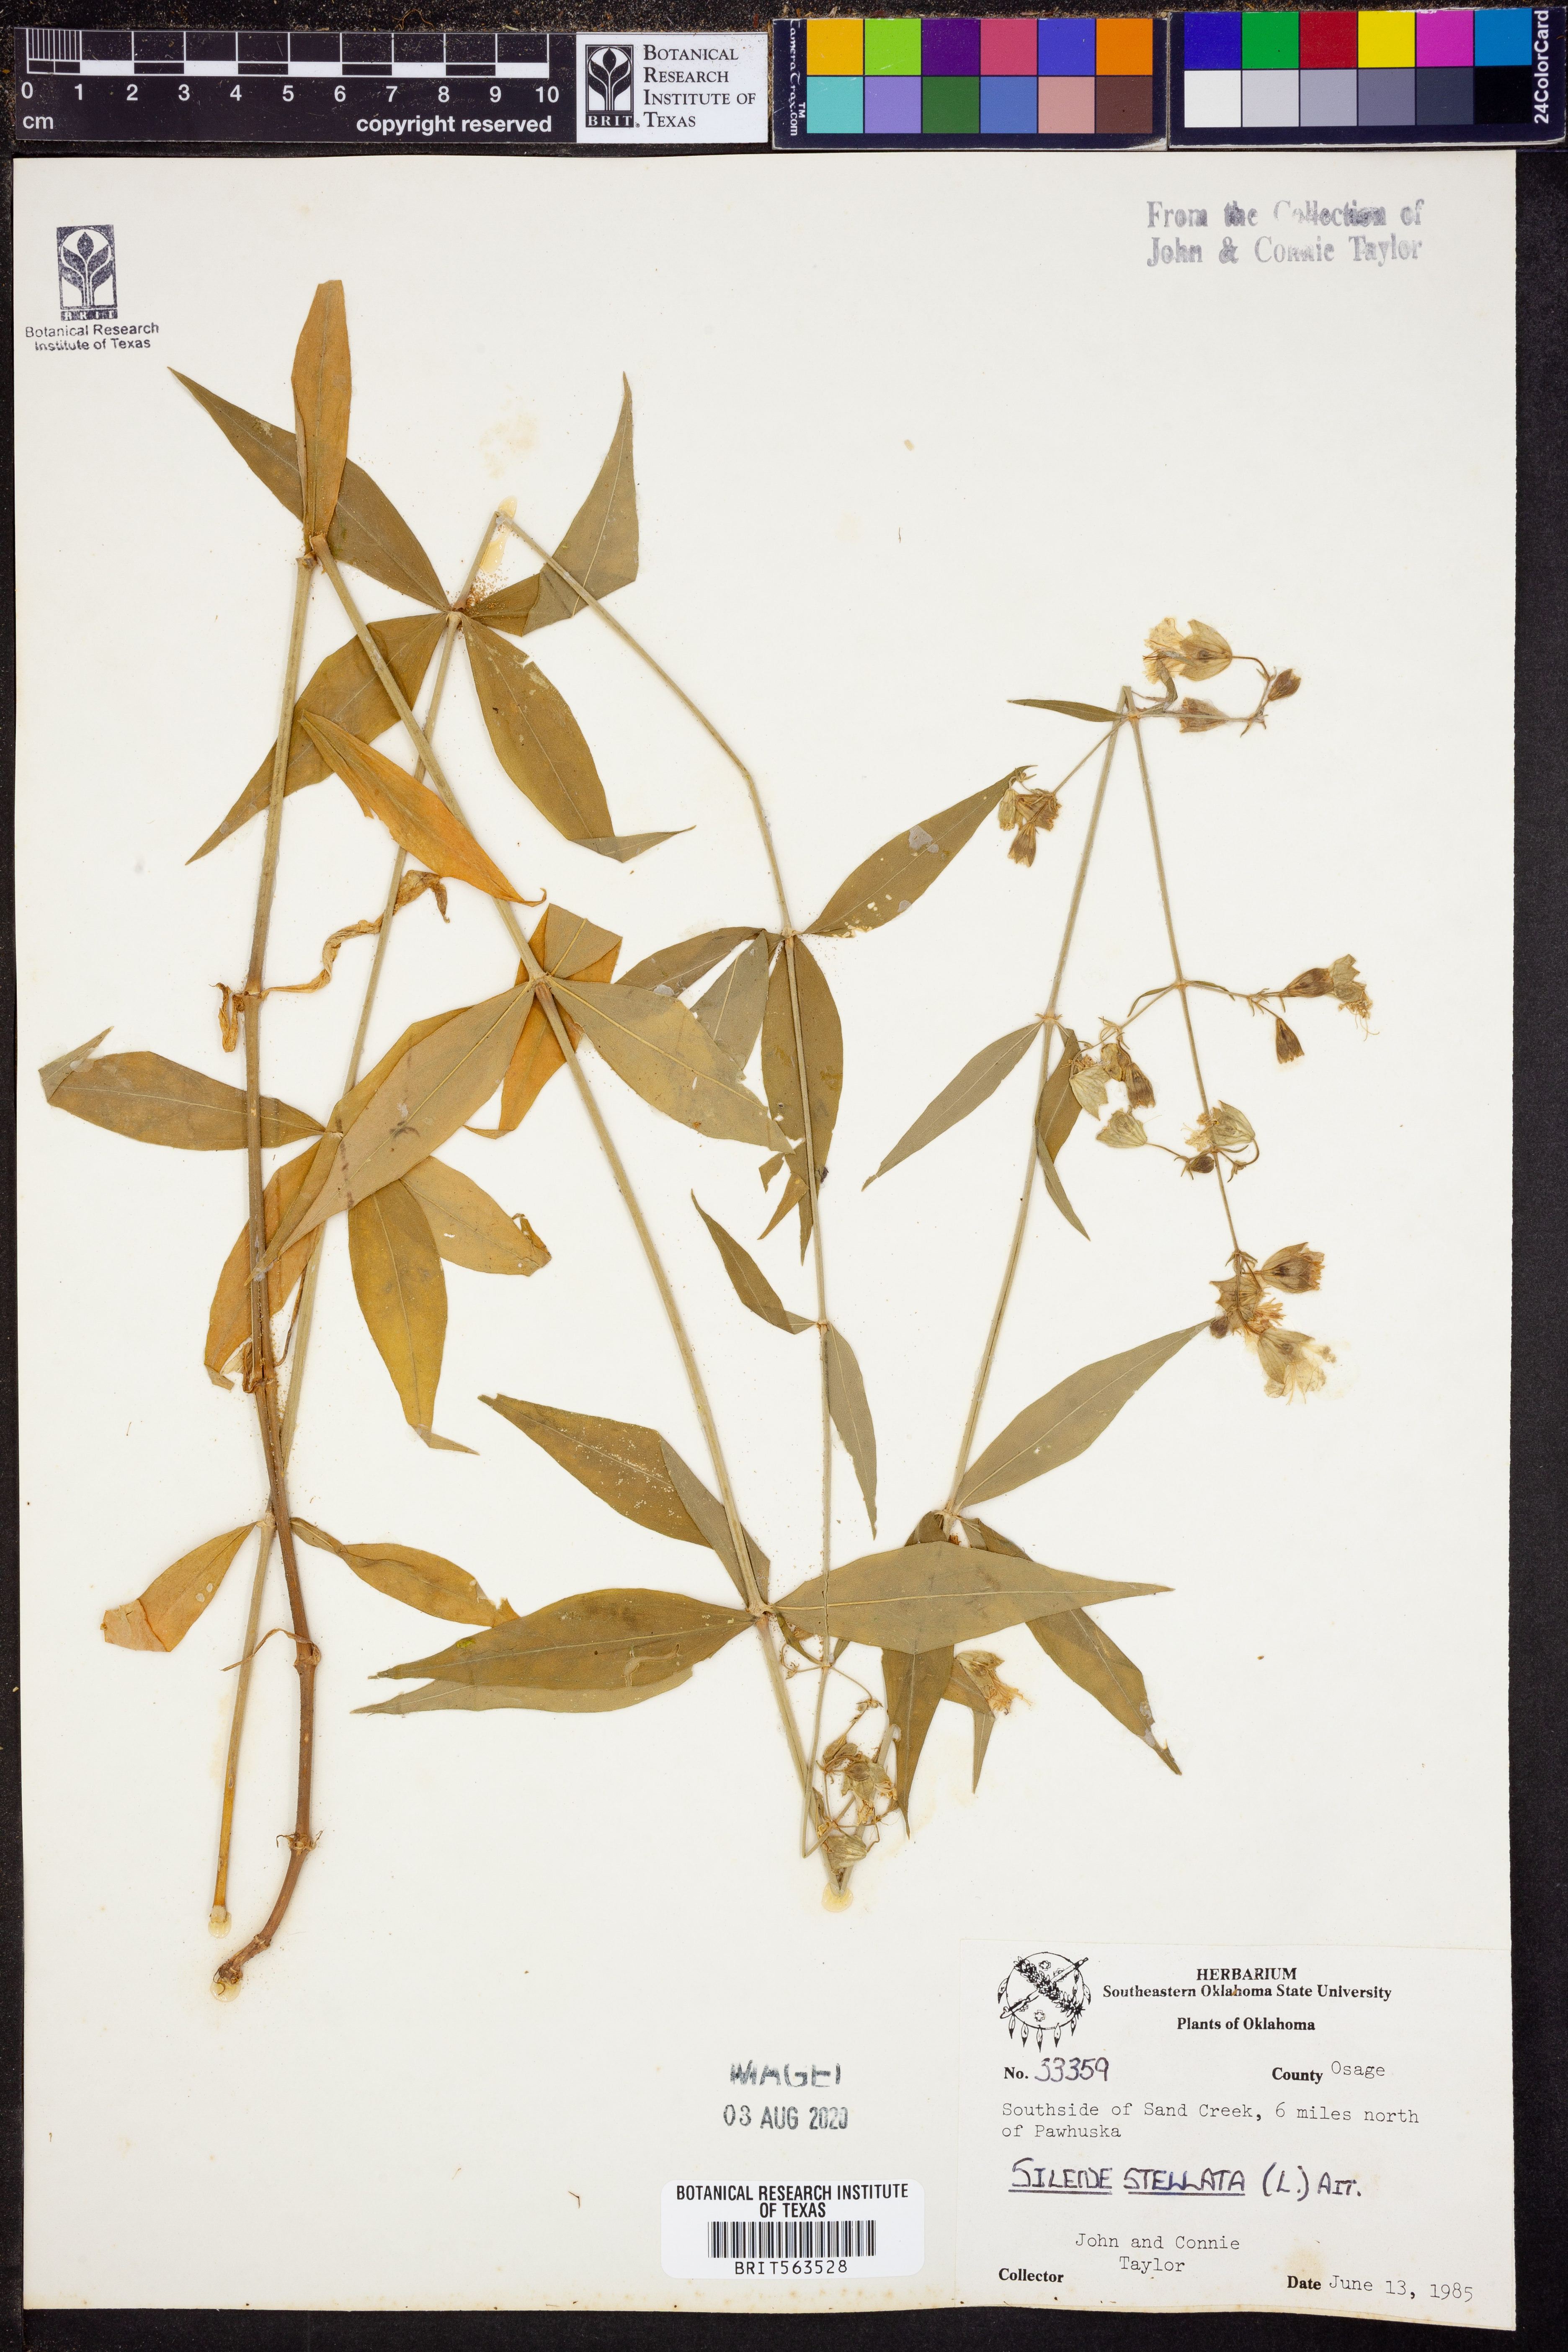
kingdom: Plantae
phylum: Tracheophyta
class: Magnoliopsida
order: Caryophyllales
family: Caryophyllaceae
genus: Silene
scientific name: Silene stellata
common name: Starry campion
